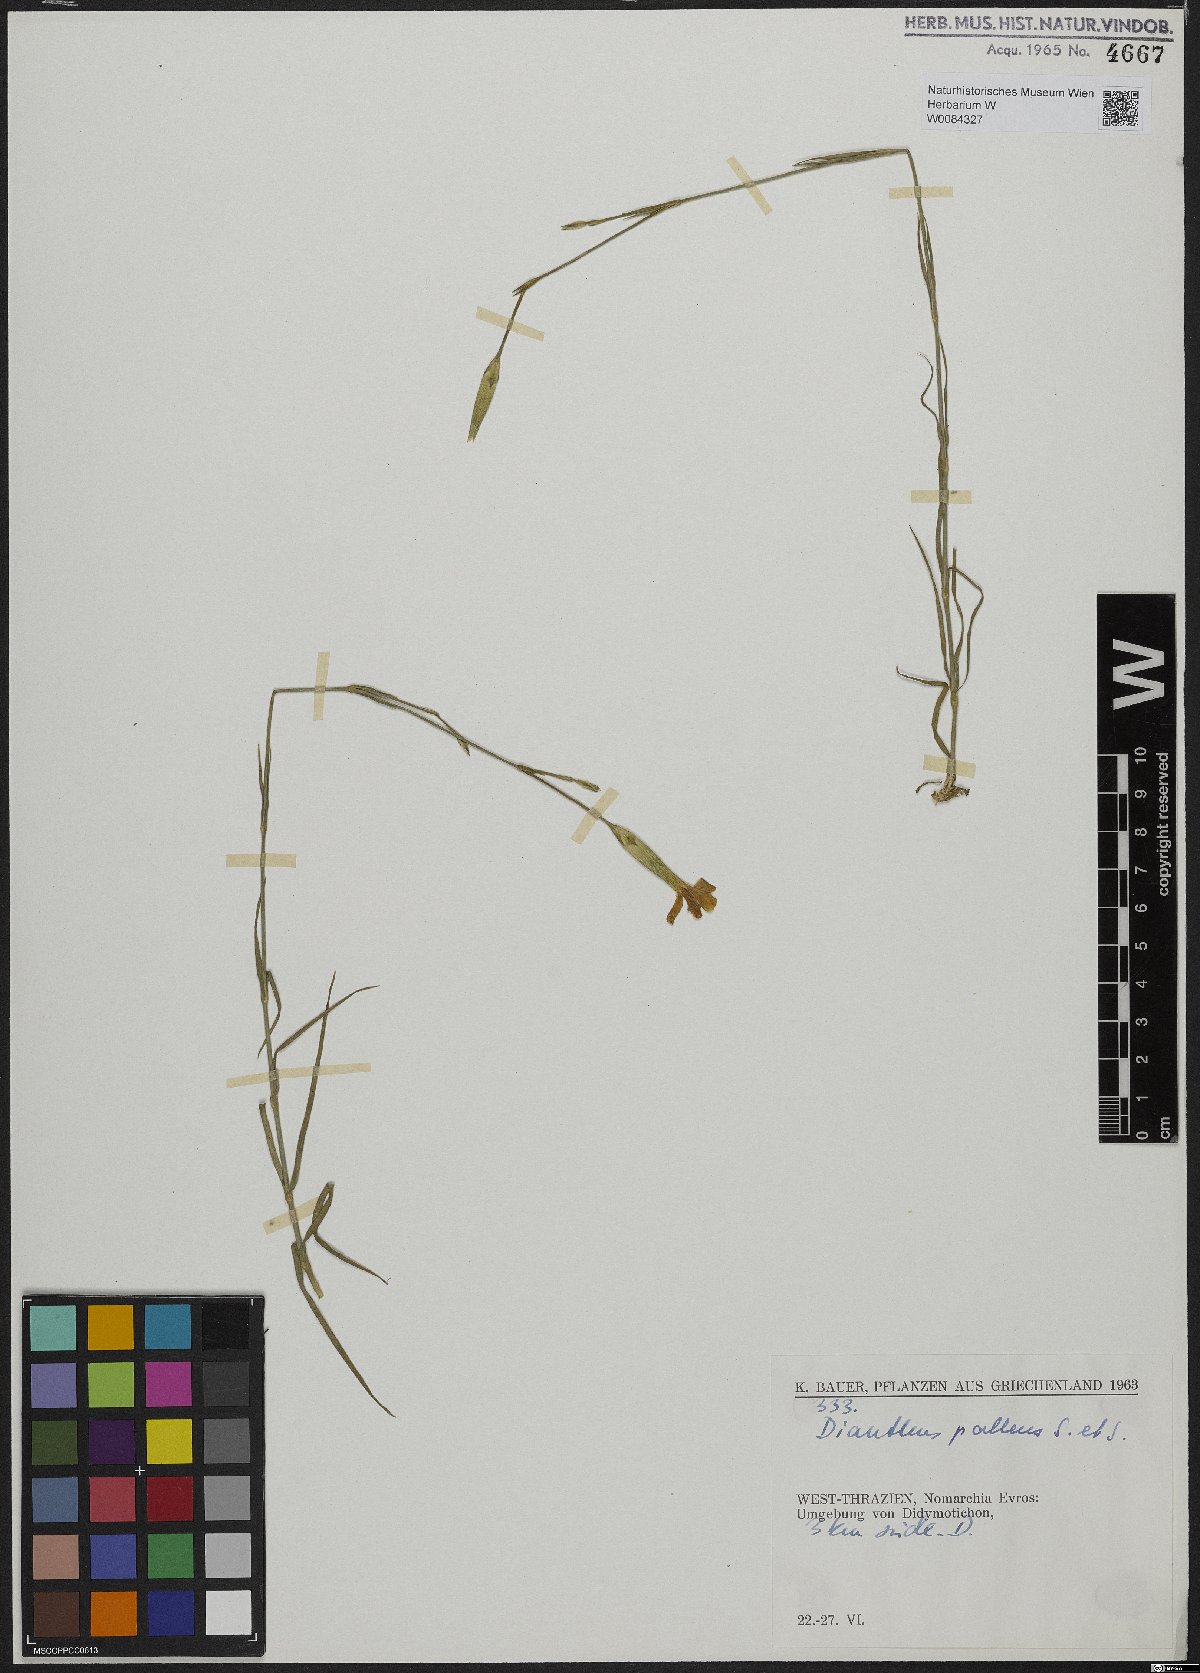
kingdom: Plantae
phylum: Tracheophyta
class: Magnoliopsida
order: Caryophyllales
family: Caryophyllaceae
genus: Dianthus
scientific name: Dianthus monadelphus
